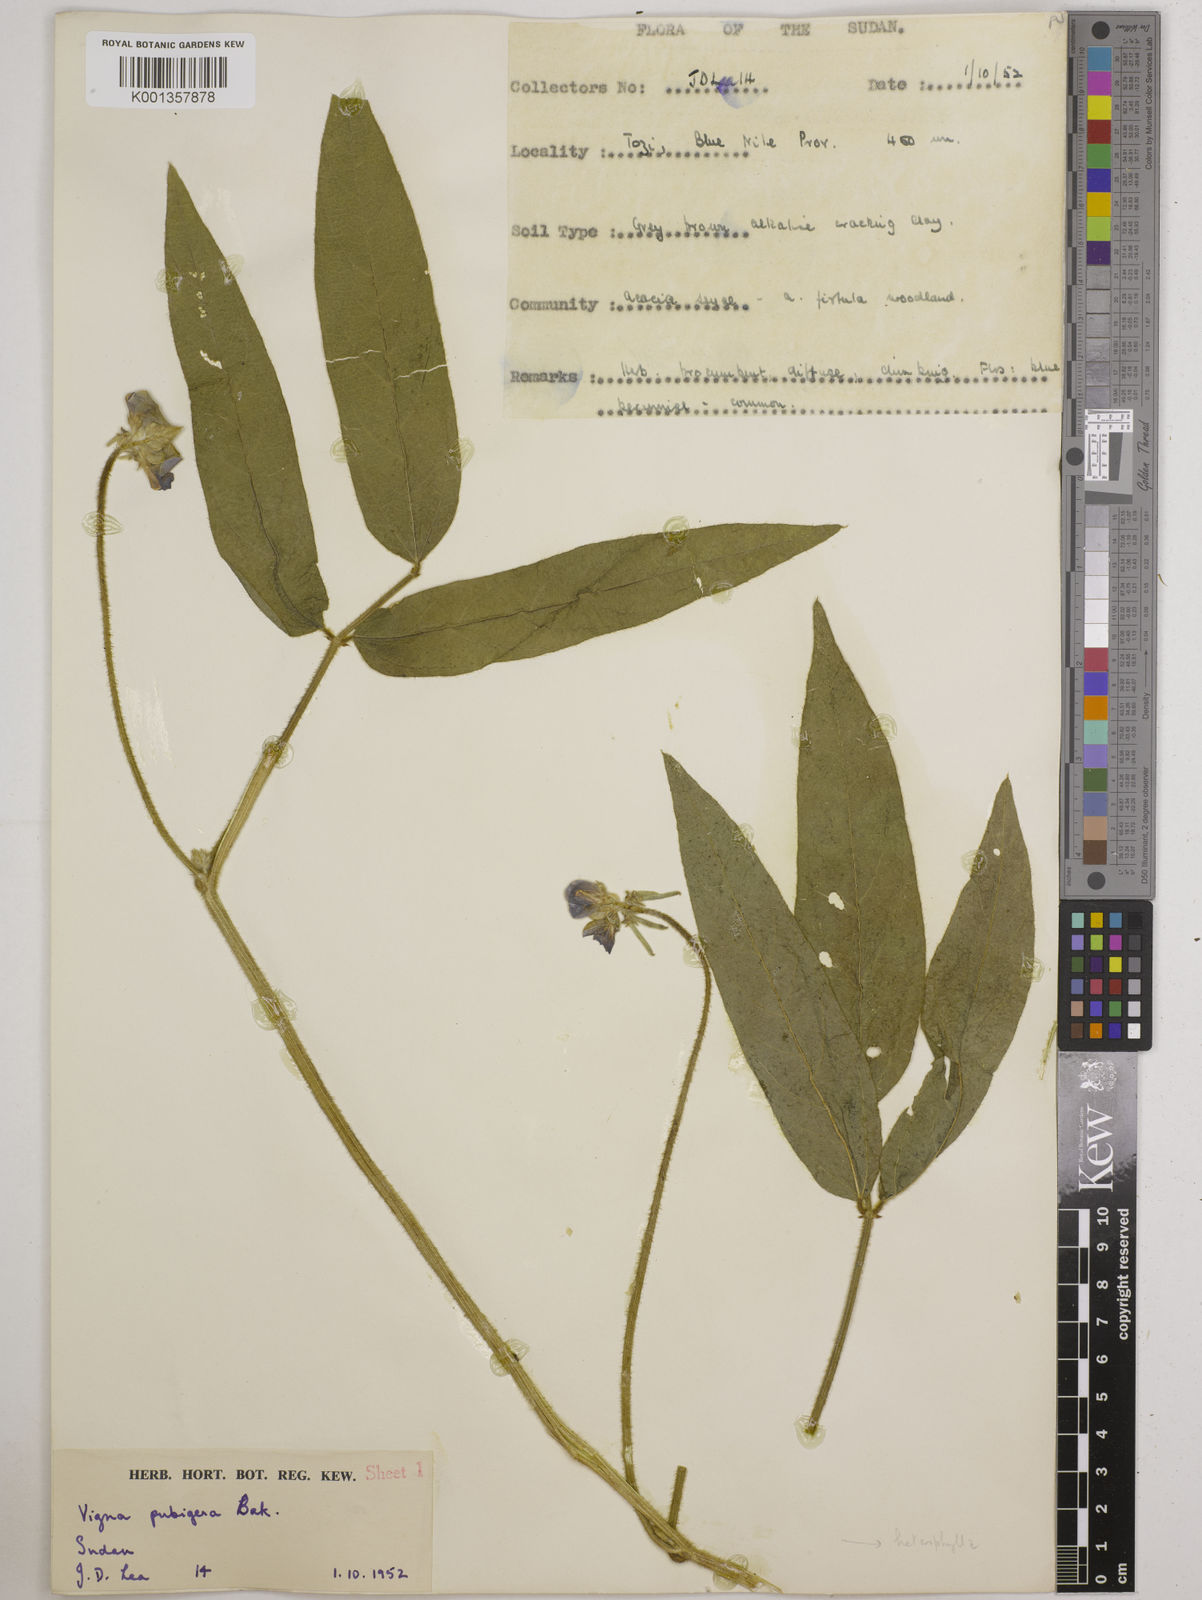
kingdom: Plantae
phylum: Tracheophyta
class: Magnoliopsida
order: Fabales
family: Fabaceae
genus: Vigna
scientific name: Vigna ambacensis
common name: Tsarkiyan zomo
